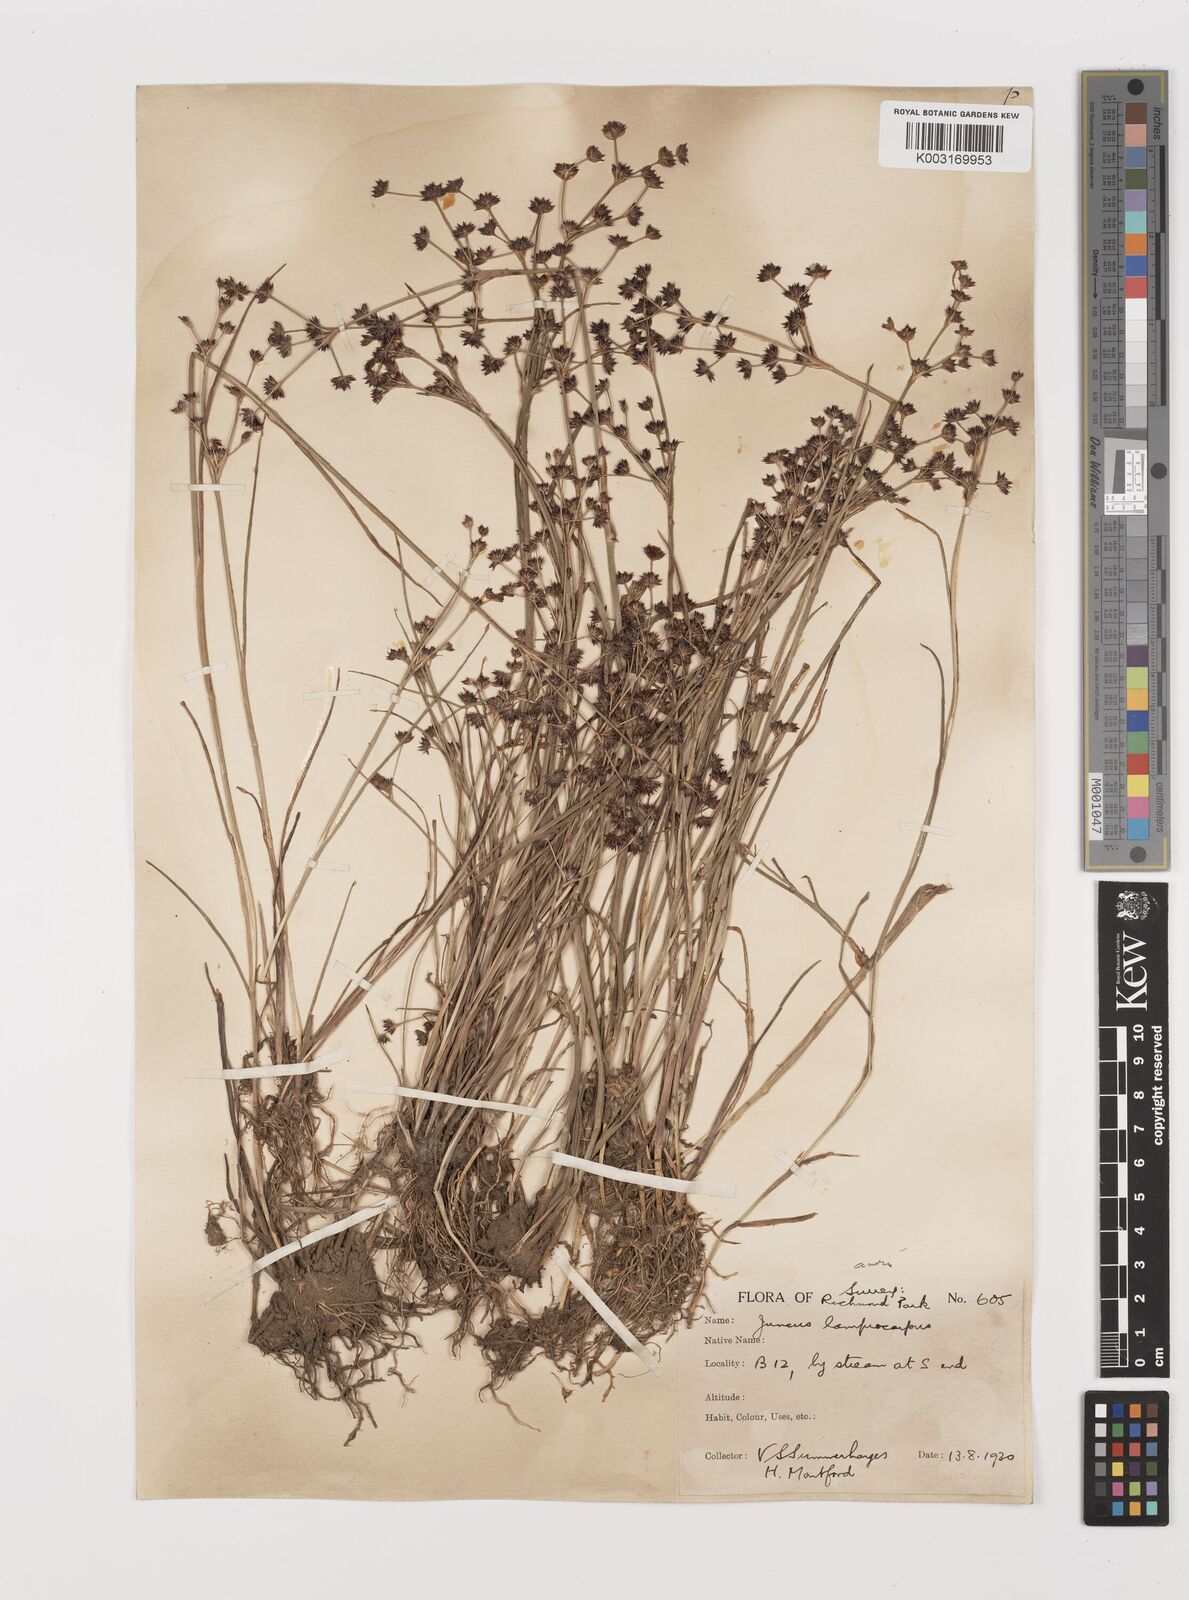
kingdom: Plantae
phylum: Tracheophyta
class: Liliopsida
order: Poales
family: Juncaceae
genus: Juncus
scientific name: Juncus articulatus
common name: Jointed rush
